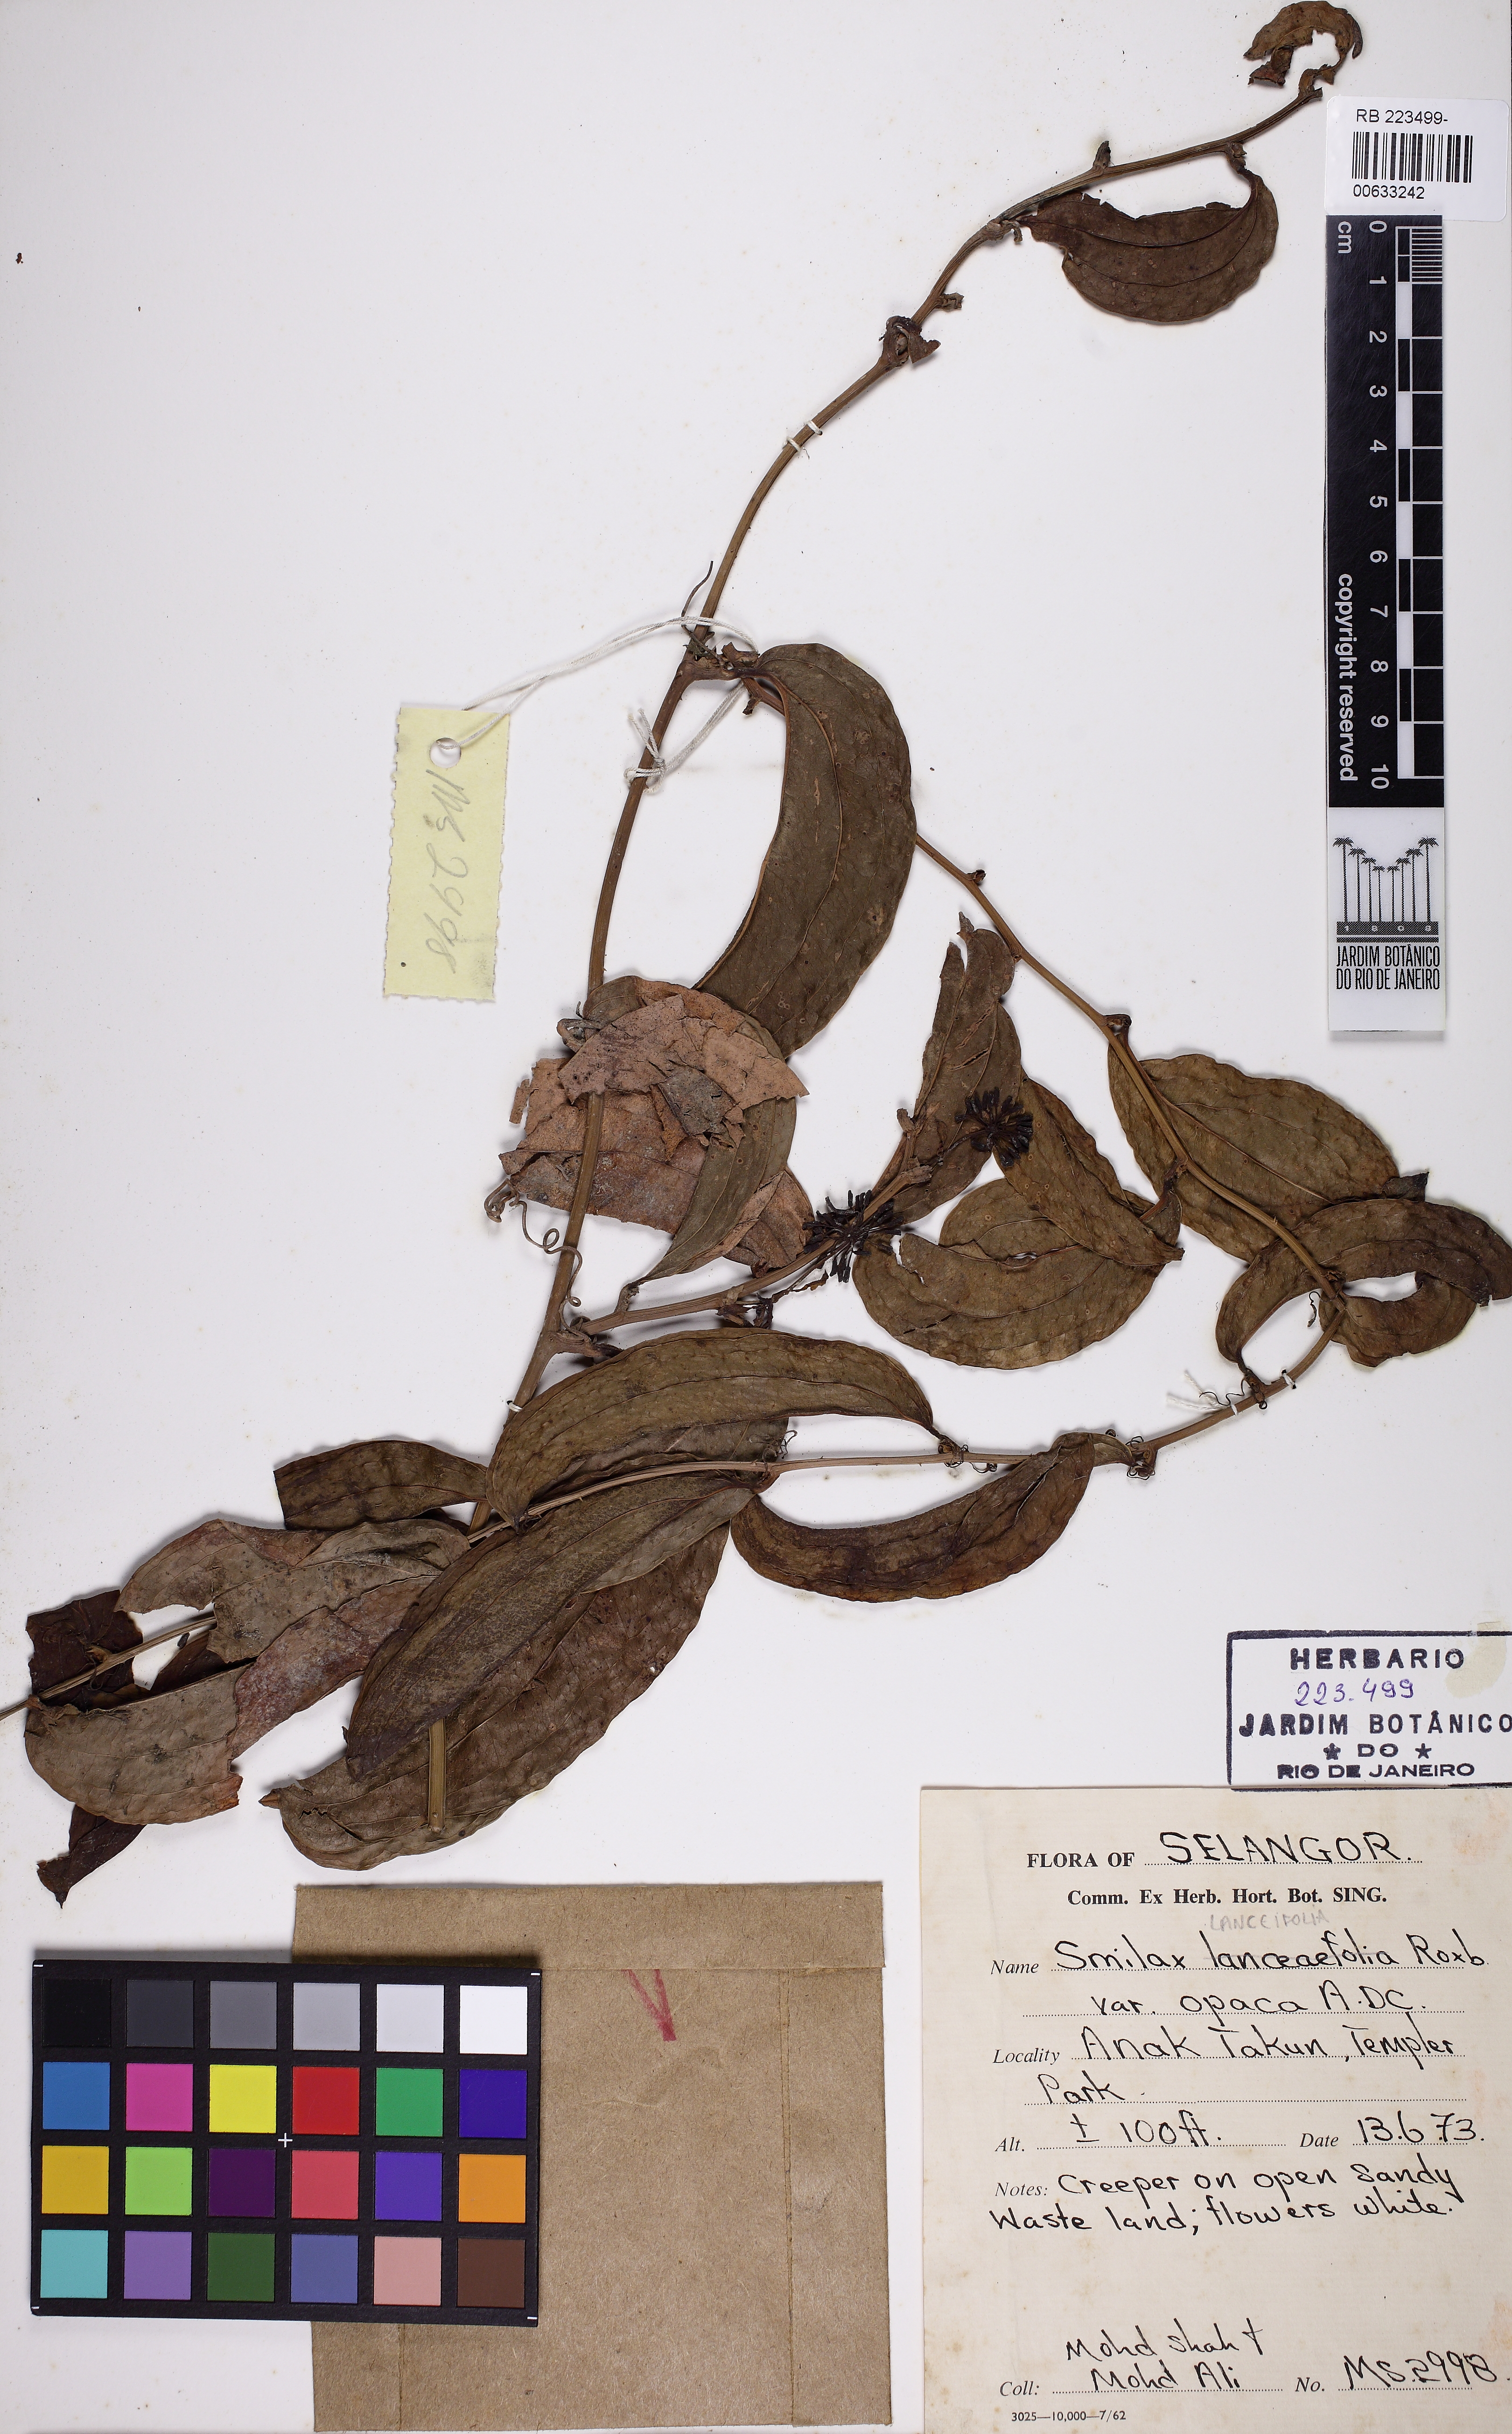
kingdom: Plantae
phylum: Tracheophyta
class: Liliopsida
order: Liliales
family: Smilacaceae
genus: Smilax
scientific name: Smilax lanceifolia
